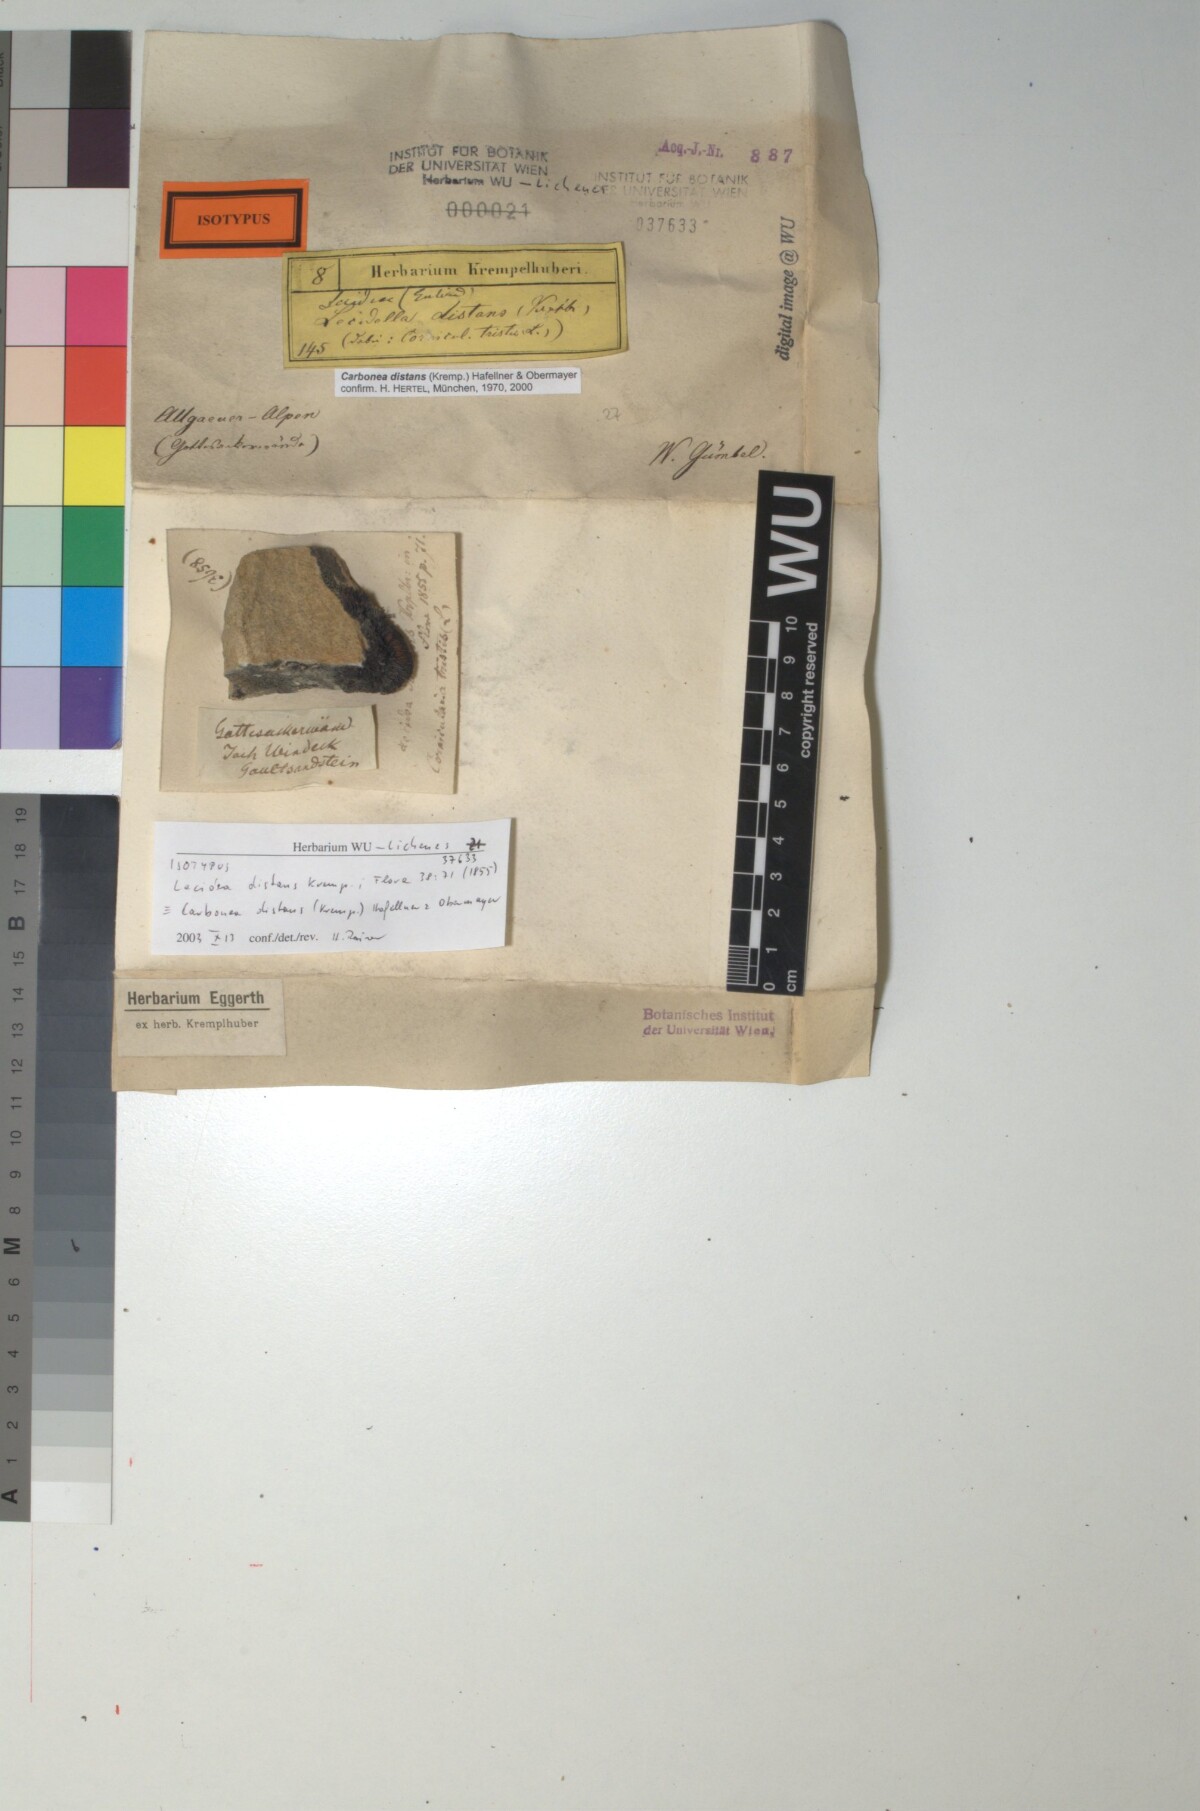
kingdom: Fungi
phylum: Ascomycota
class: Lecanoromycetes
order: Lecanorales
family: Lecanoraceae
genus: Lecidella
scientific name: Lecidella pulveracea
